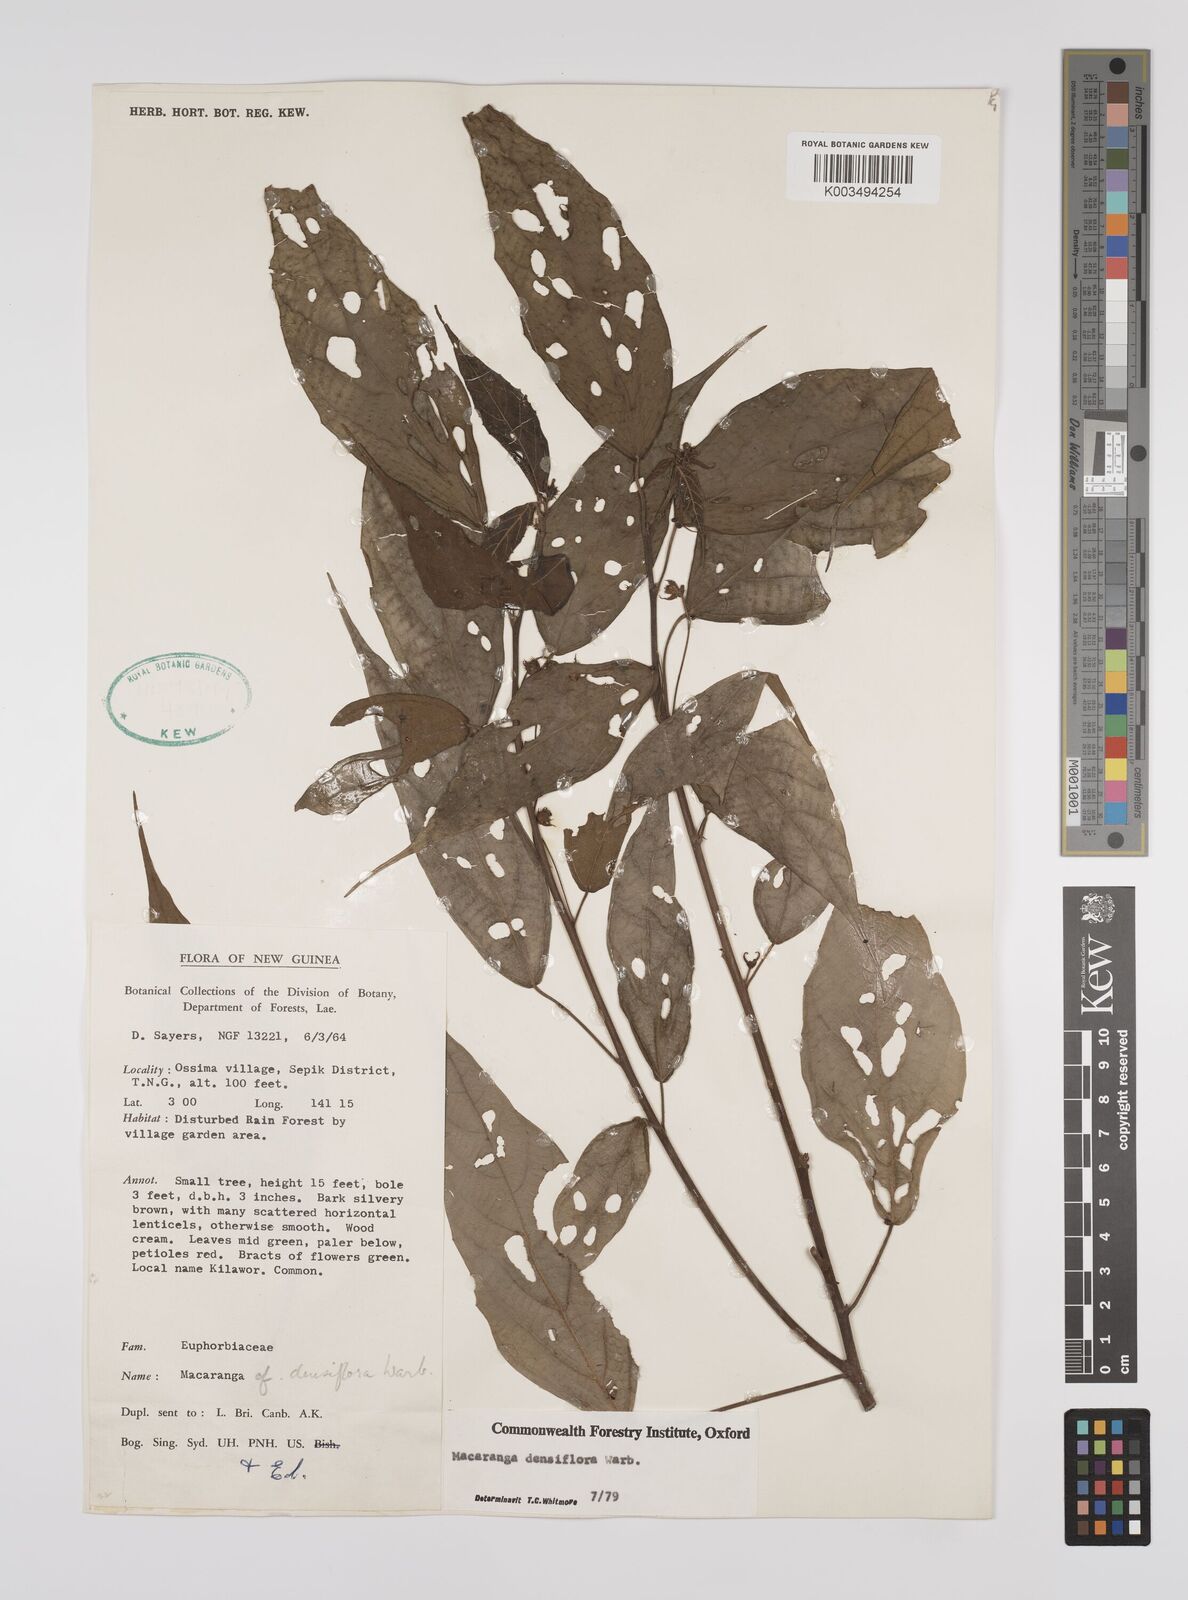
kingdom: Plantae
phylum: Tracheophyta
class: Magnoliopsida
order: Malpighiales
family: Euphorbiaceae
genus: Macaranga
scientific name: Macaranga densiflora
